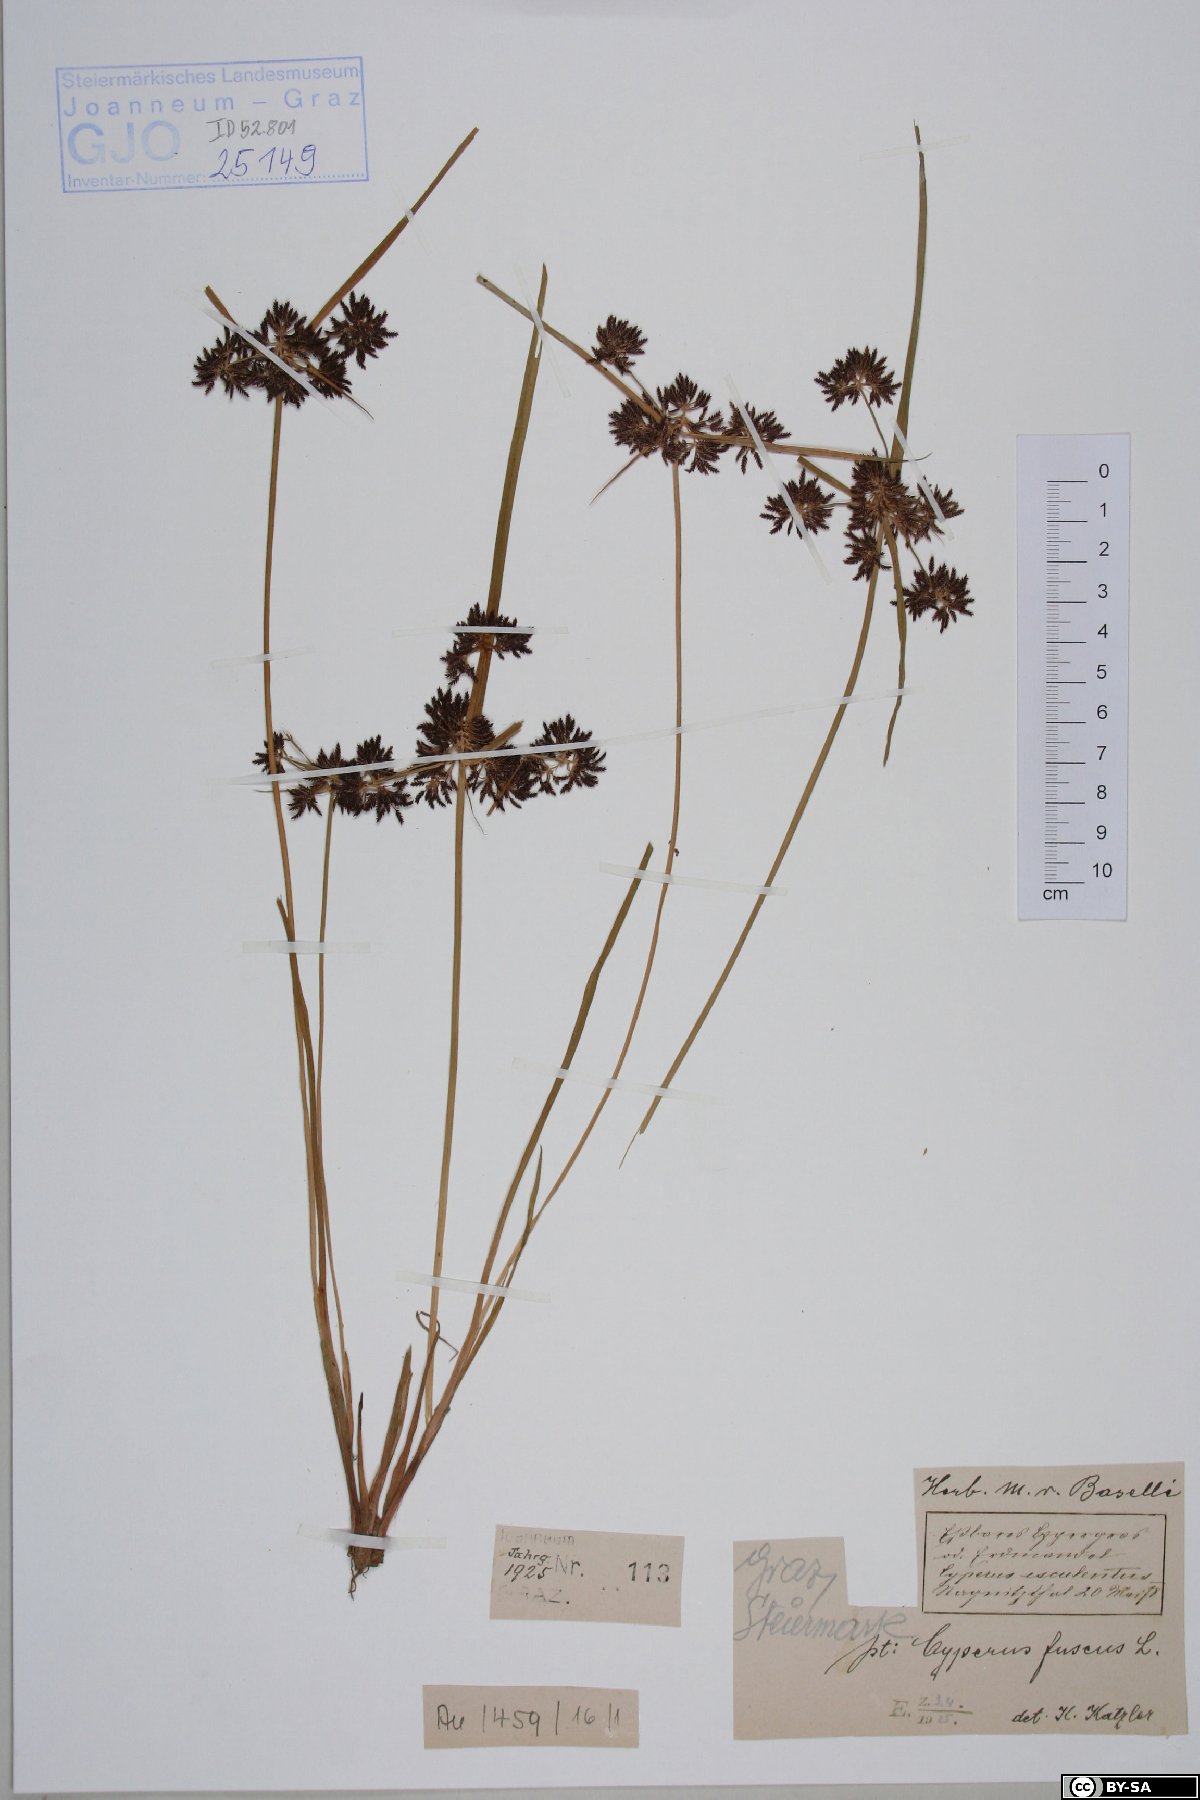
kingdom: Plantae
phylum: Tracheophyta
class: Liliopsida
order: Poales
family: Cyperaceae
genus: Cyperus
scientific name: Cyperus fuscus
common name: Brown galingale
